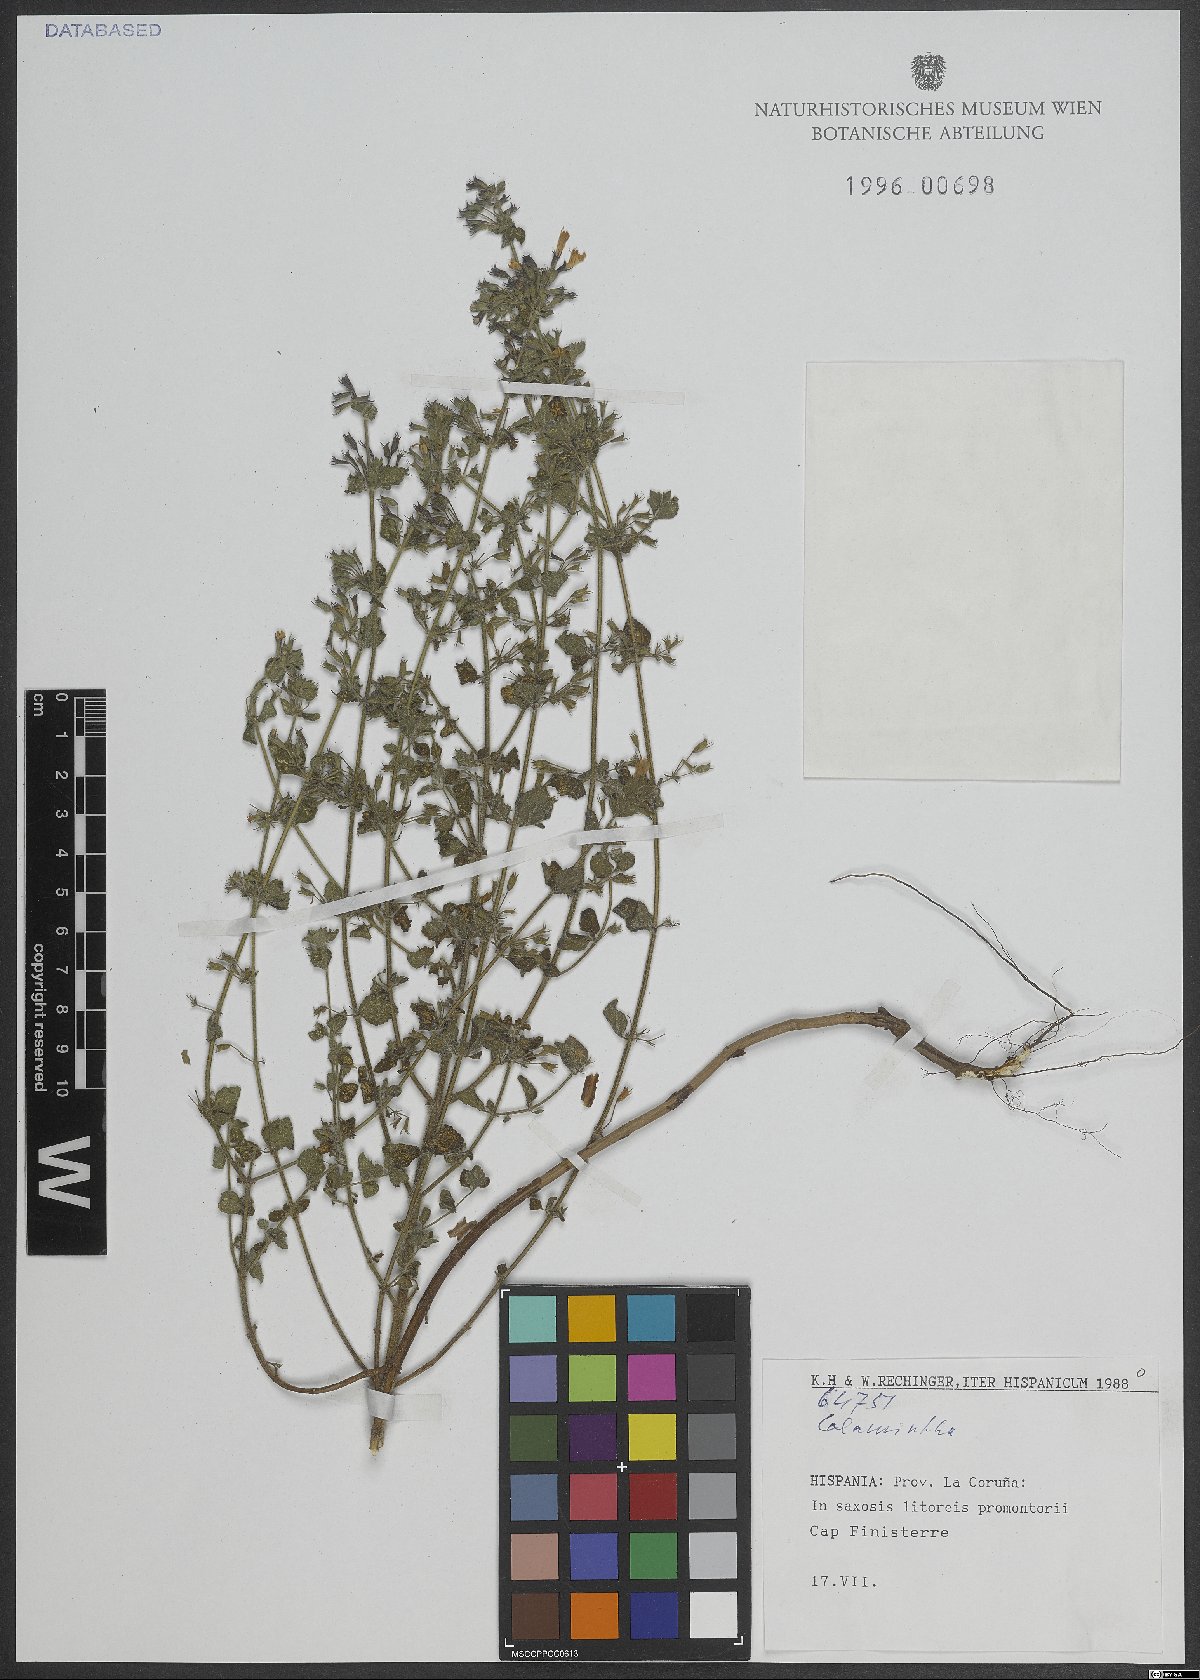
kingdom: Plantae
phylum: Tracheophyta
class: Magnoliopsida
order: Lamiales
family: Lamiaceae
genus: Calamintha
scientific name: Calamintha
